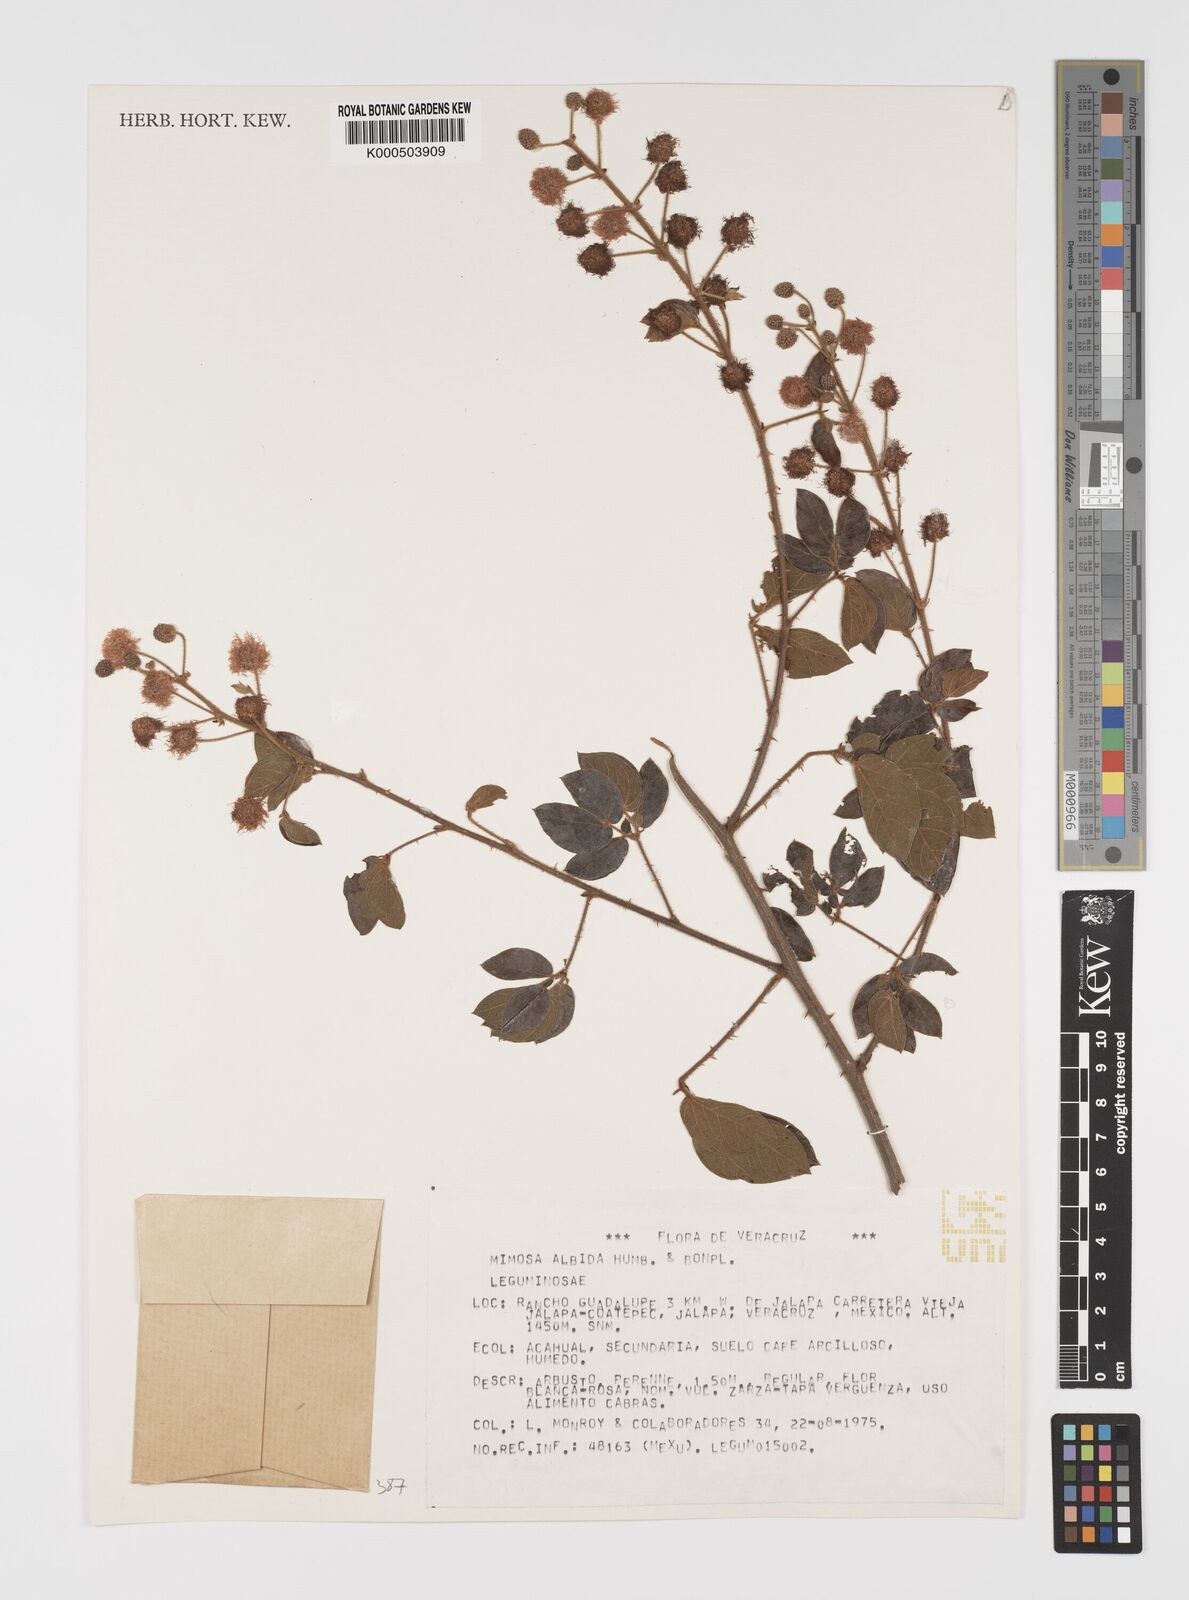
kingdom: Plantae
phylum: Tracheophyta
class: Magnoliopsida
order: Fabales
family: Fabaceae
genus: Mimosa
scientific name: Mimosa albida
